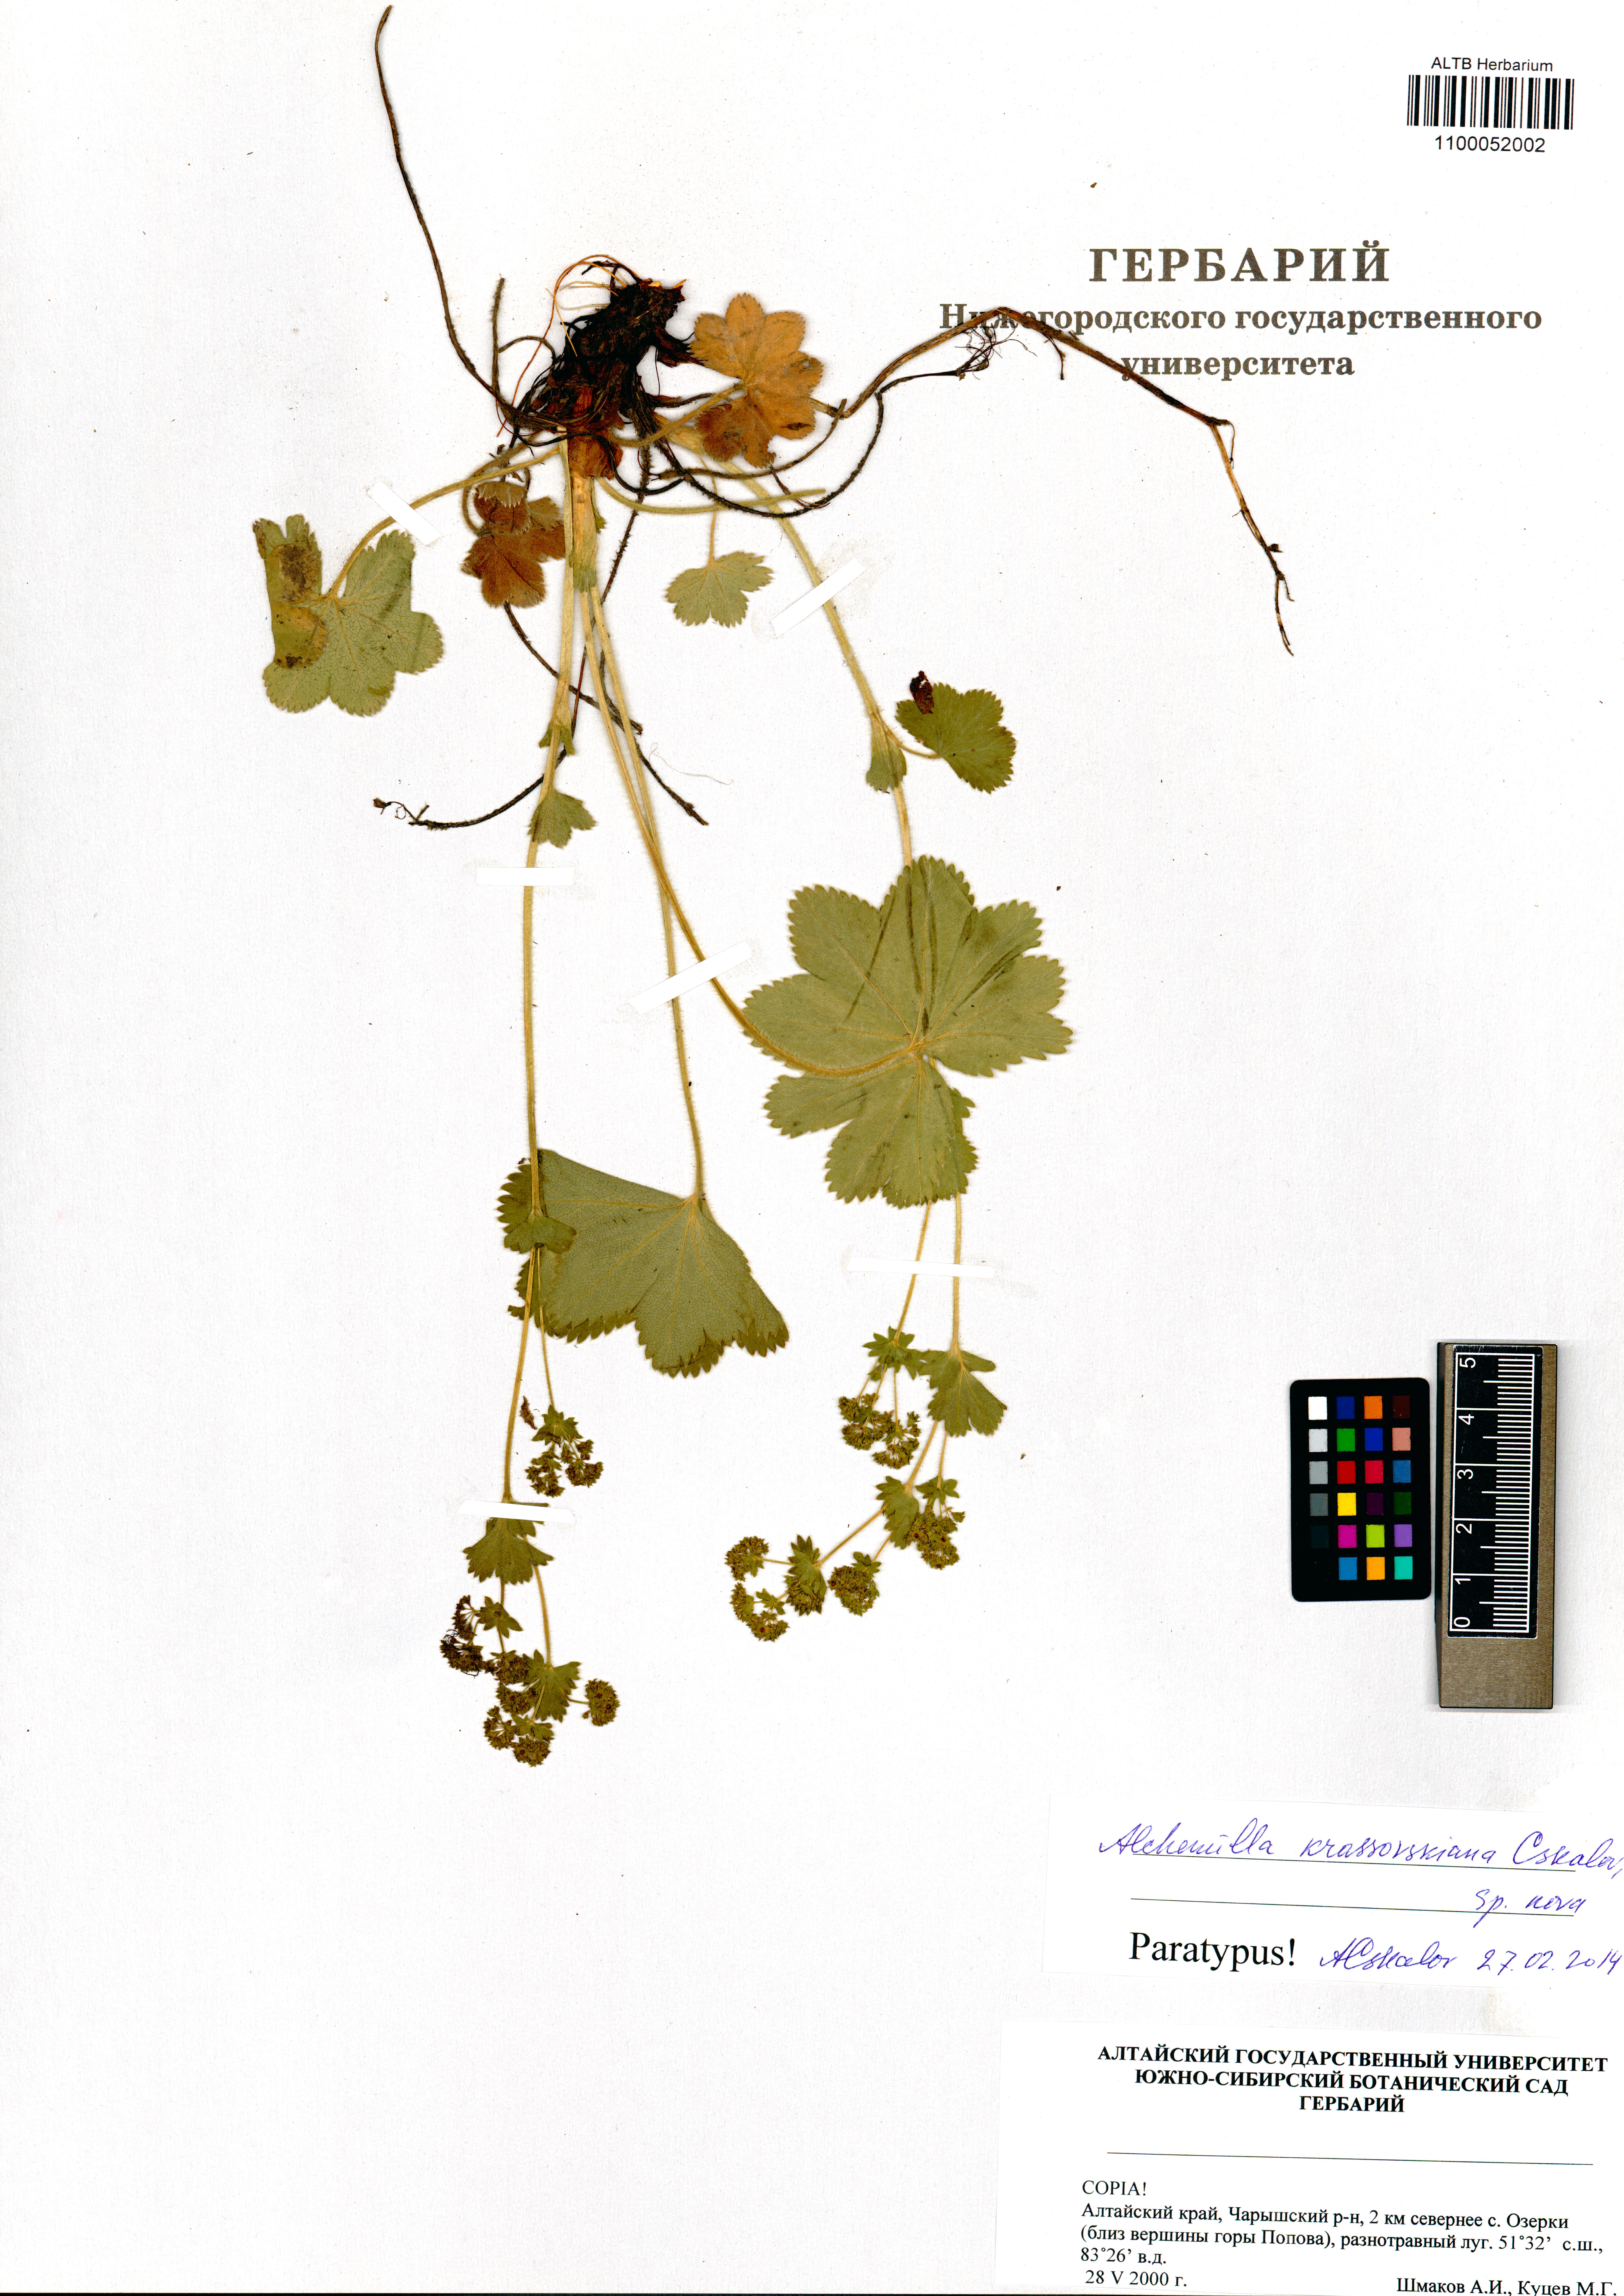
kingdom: Plantae
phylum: Tracheophyta
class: Magnoliopsida
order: Rosales
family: Rosaceae
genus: Alchemilla
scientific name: Alchemilla krassovskiana
